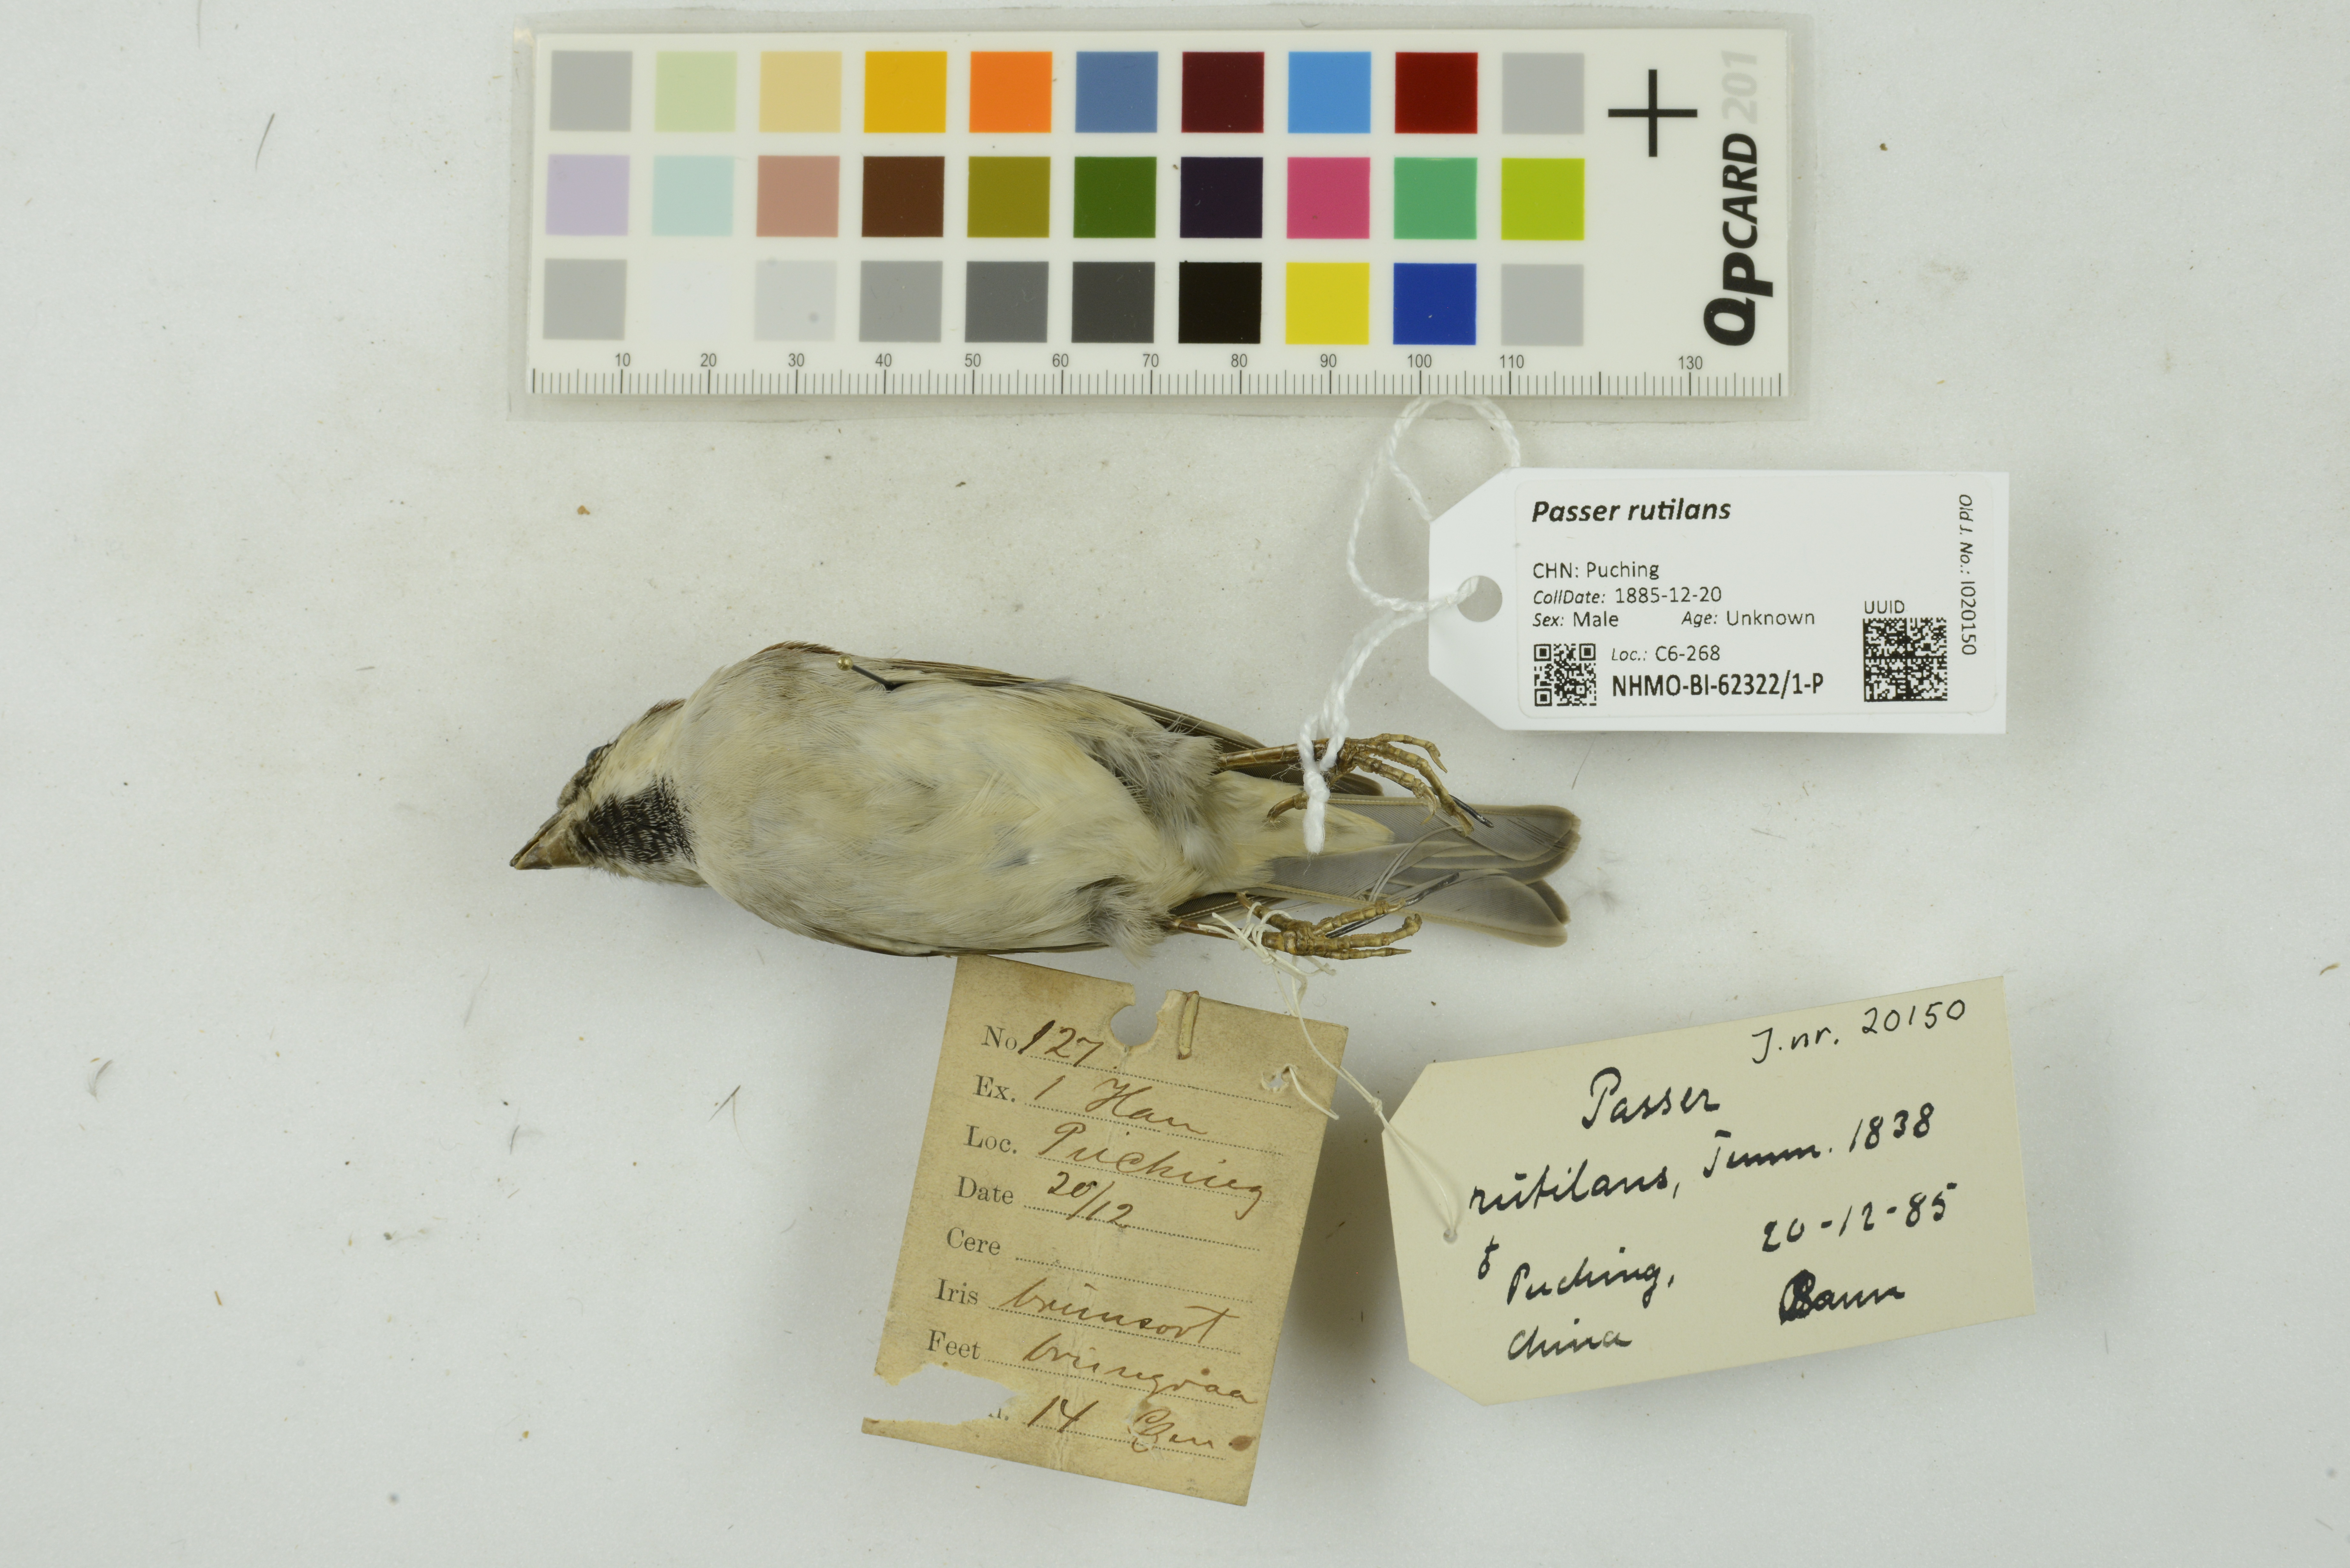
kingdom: Animalia
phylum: Chordata
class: Aves
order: Passeriformes
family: Passeridae
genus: Passer
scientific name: Passer rutilans
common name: Russet sparrow
